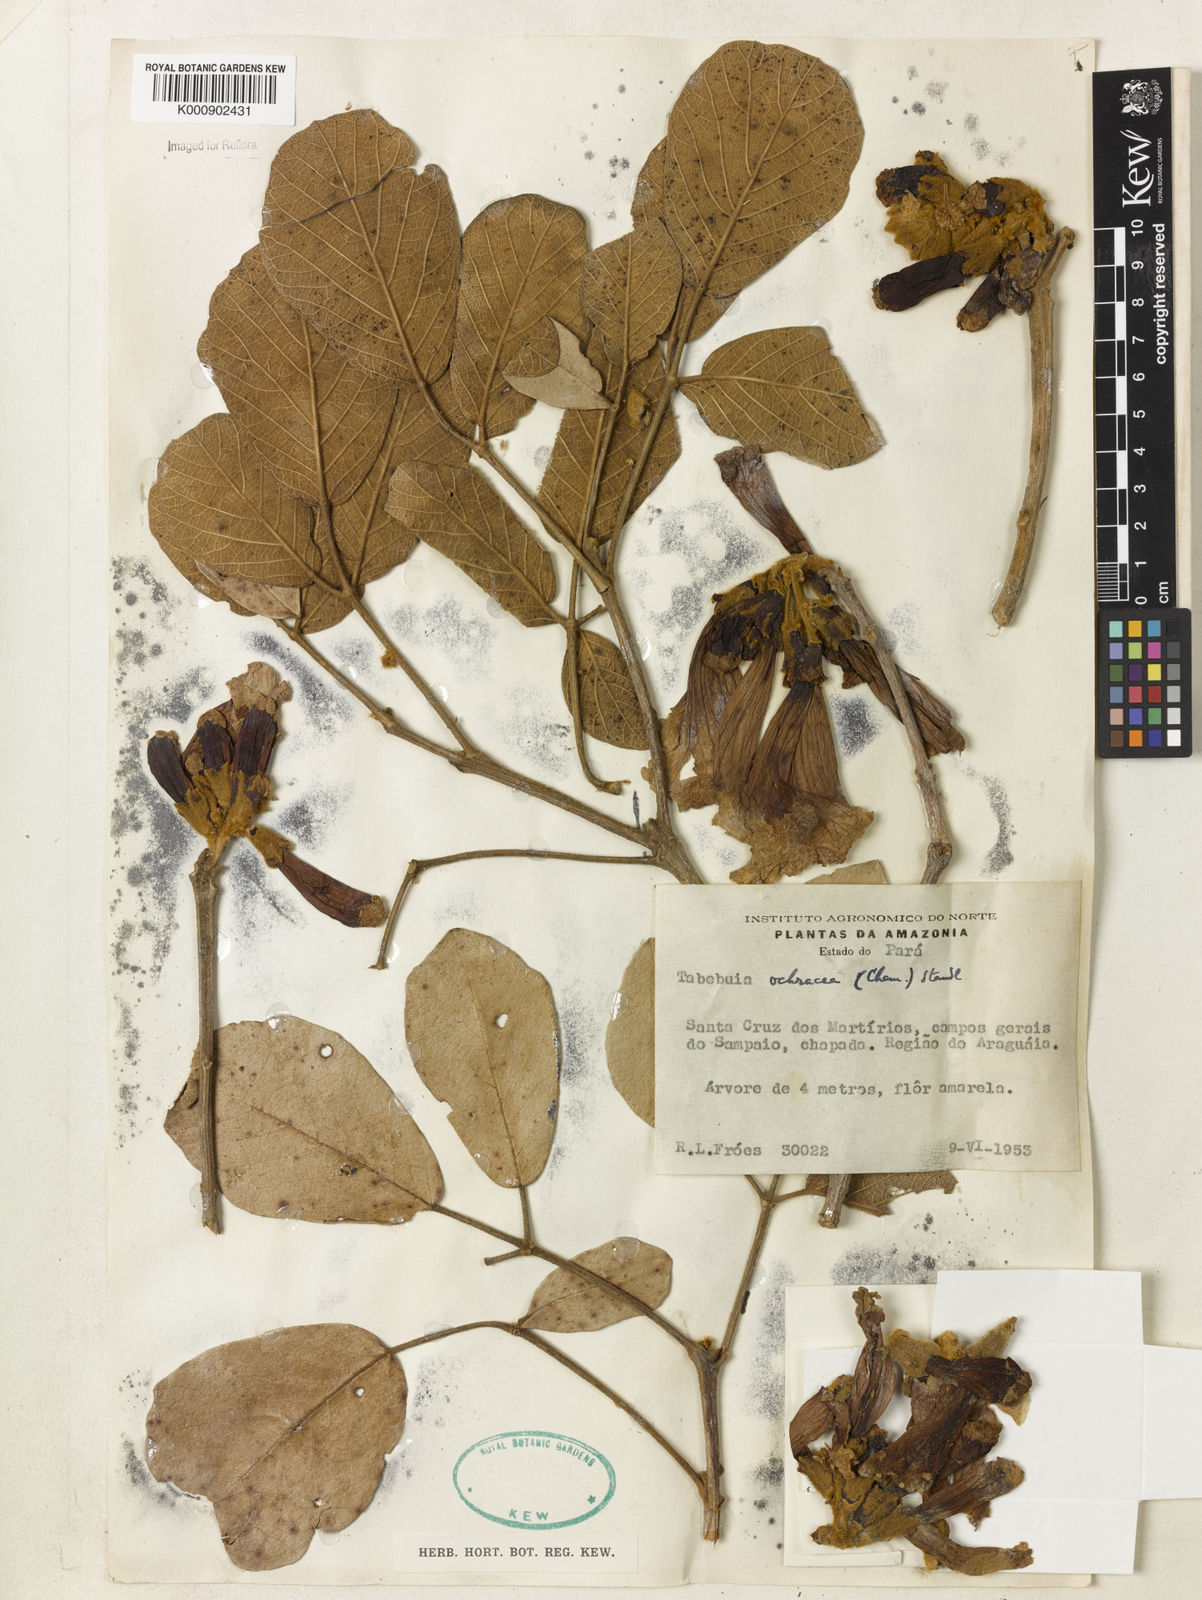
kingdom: Plantae
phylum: Tracheophyta
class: Magnoliopsida
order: Lamiales
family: Bignoniaceae
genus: Handroanthus
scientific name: Handroanthus ochraceus
